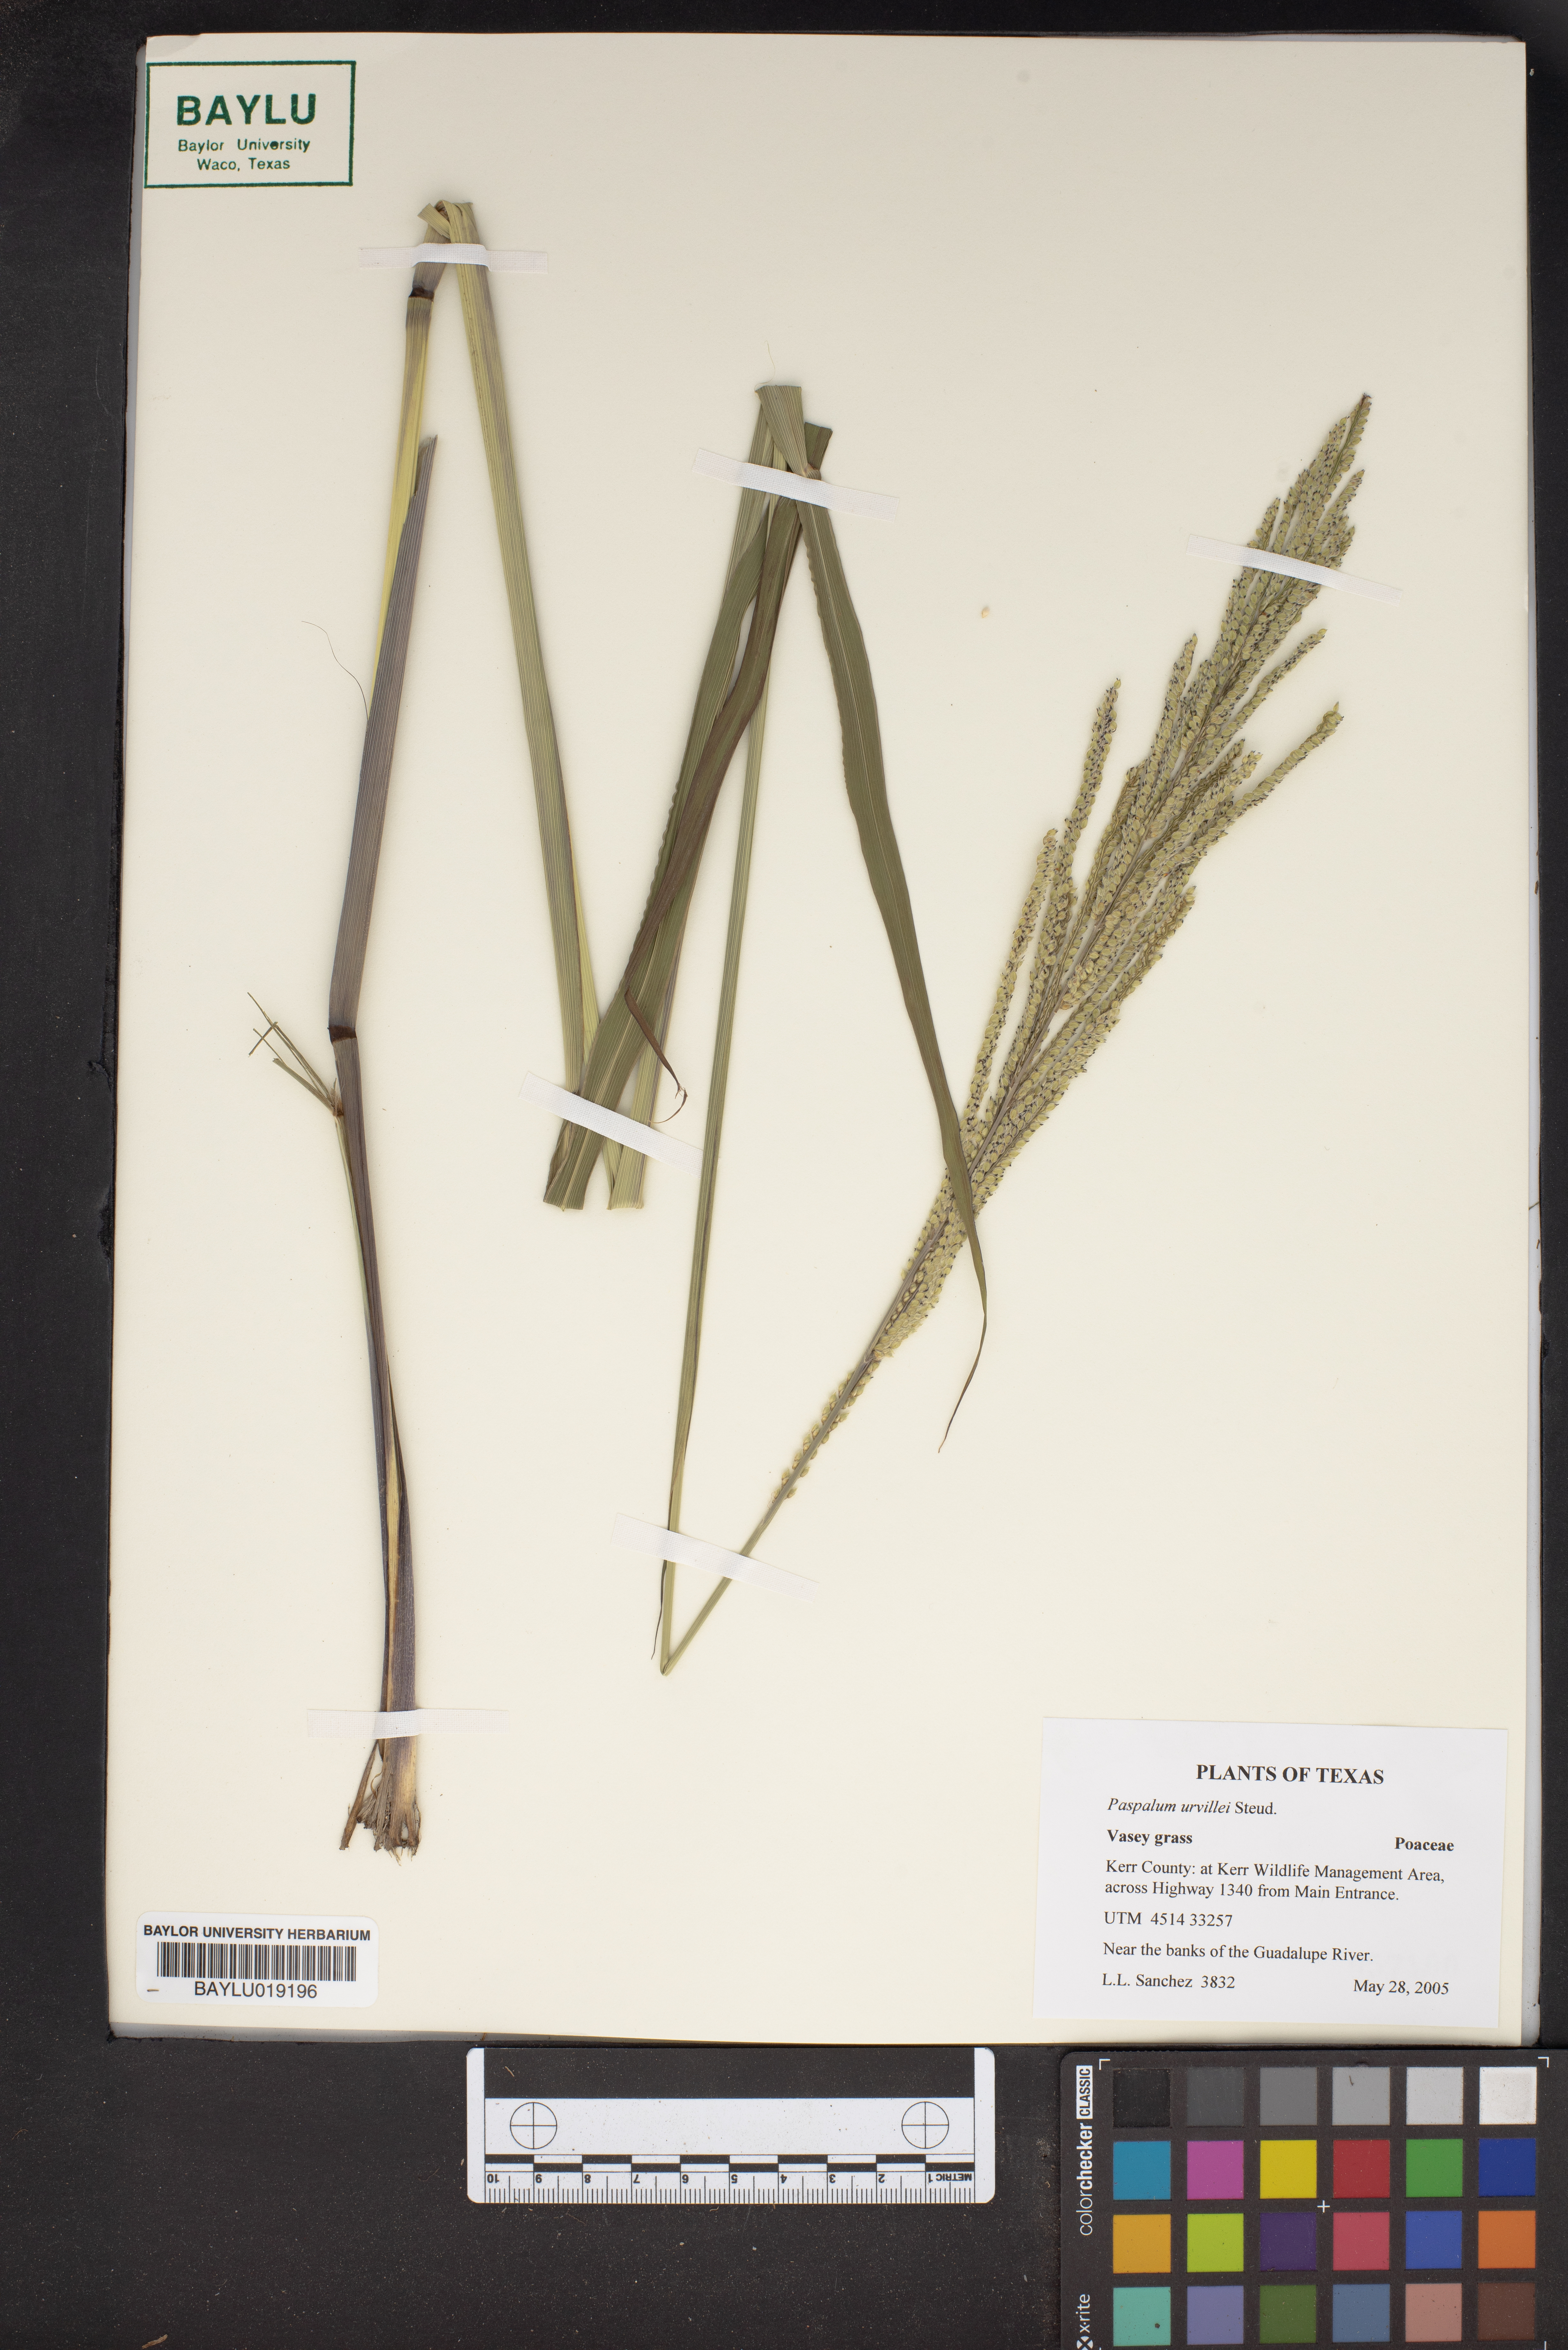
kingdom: Plantae
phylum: Tracheophyta
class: Liliopsida
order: Poales
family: Poaceae
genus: Paspalum
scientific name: Paspalum urvillei
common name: Vasey's grass
